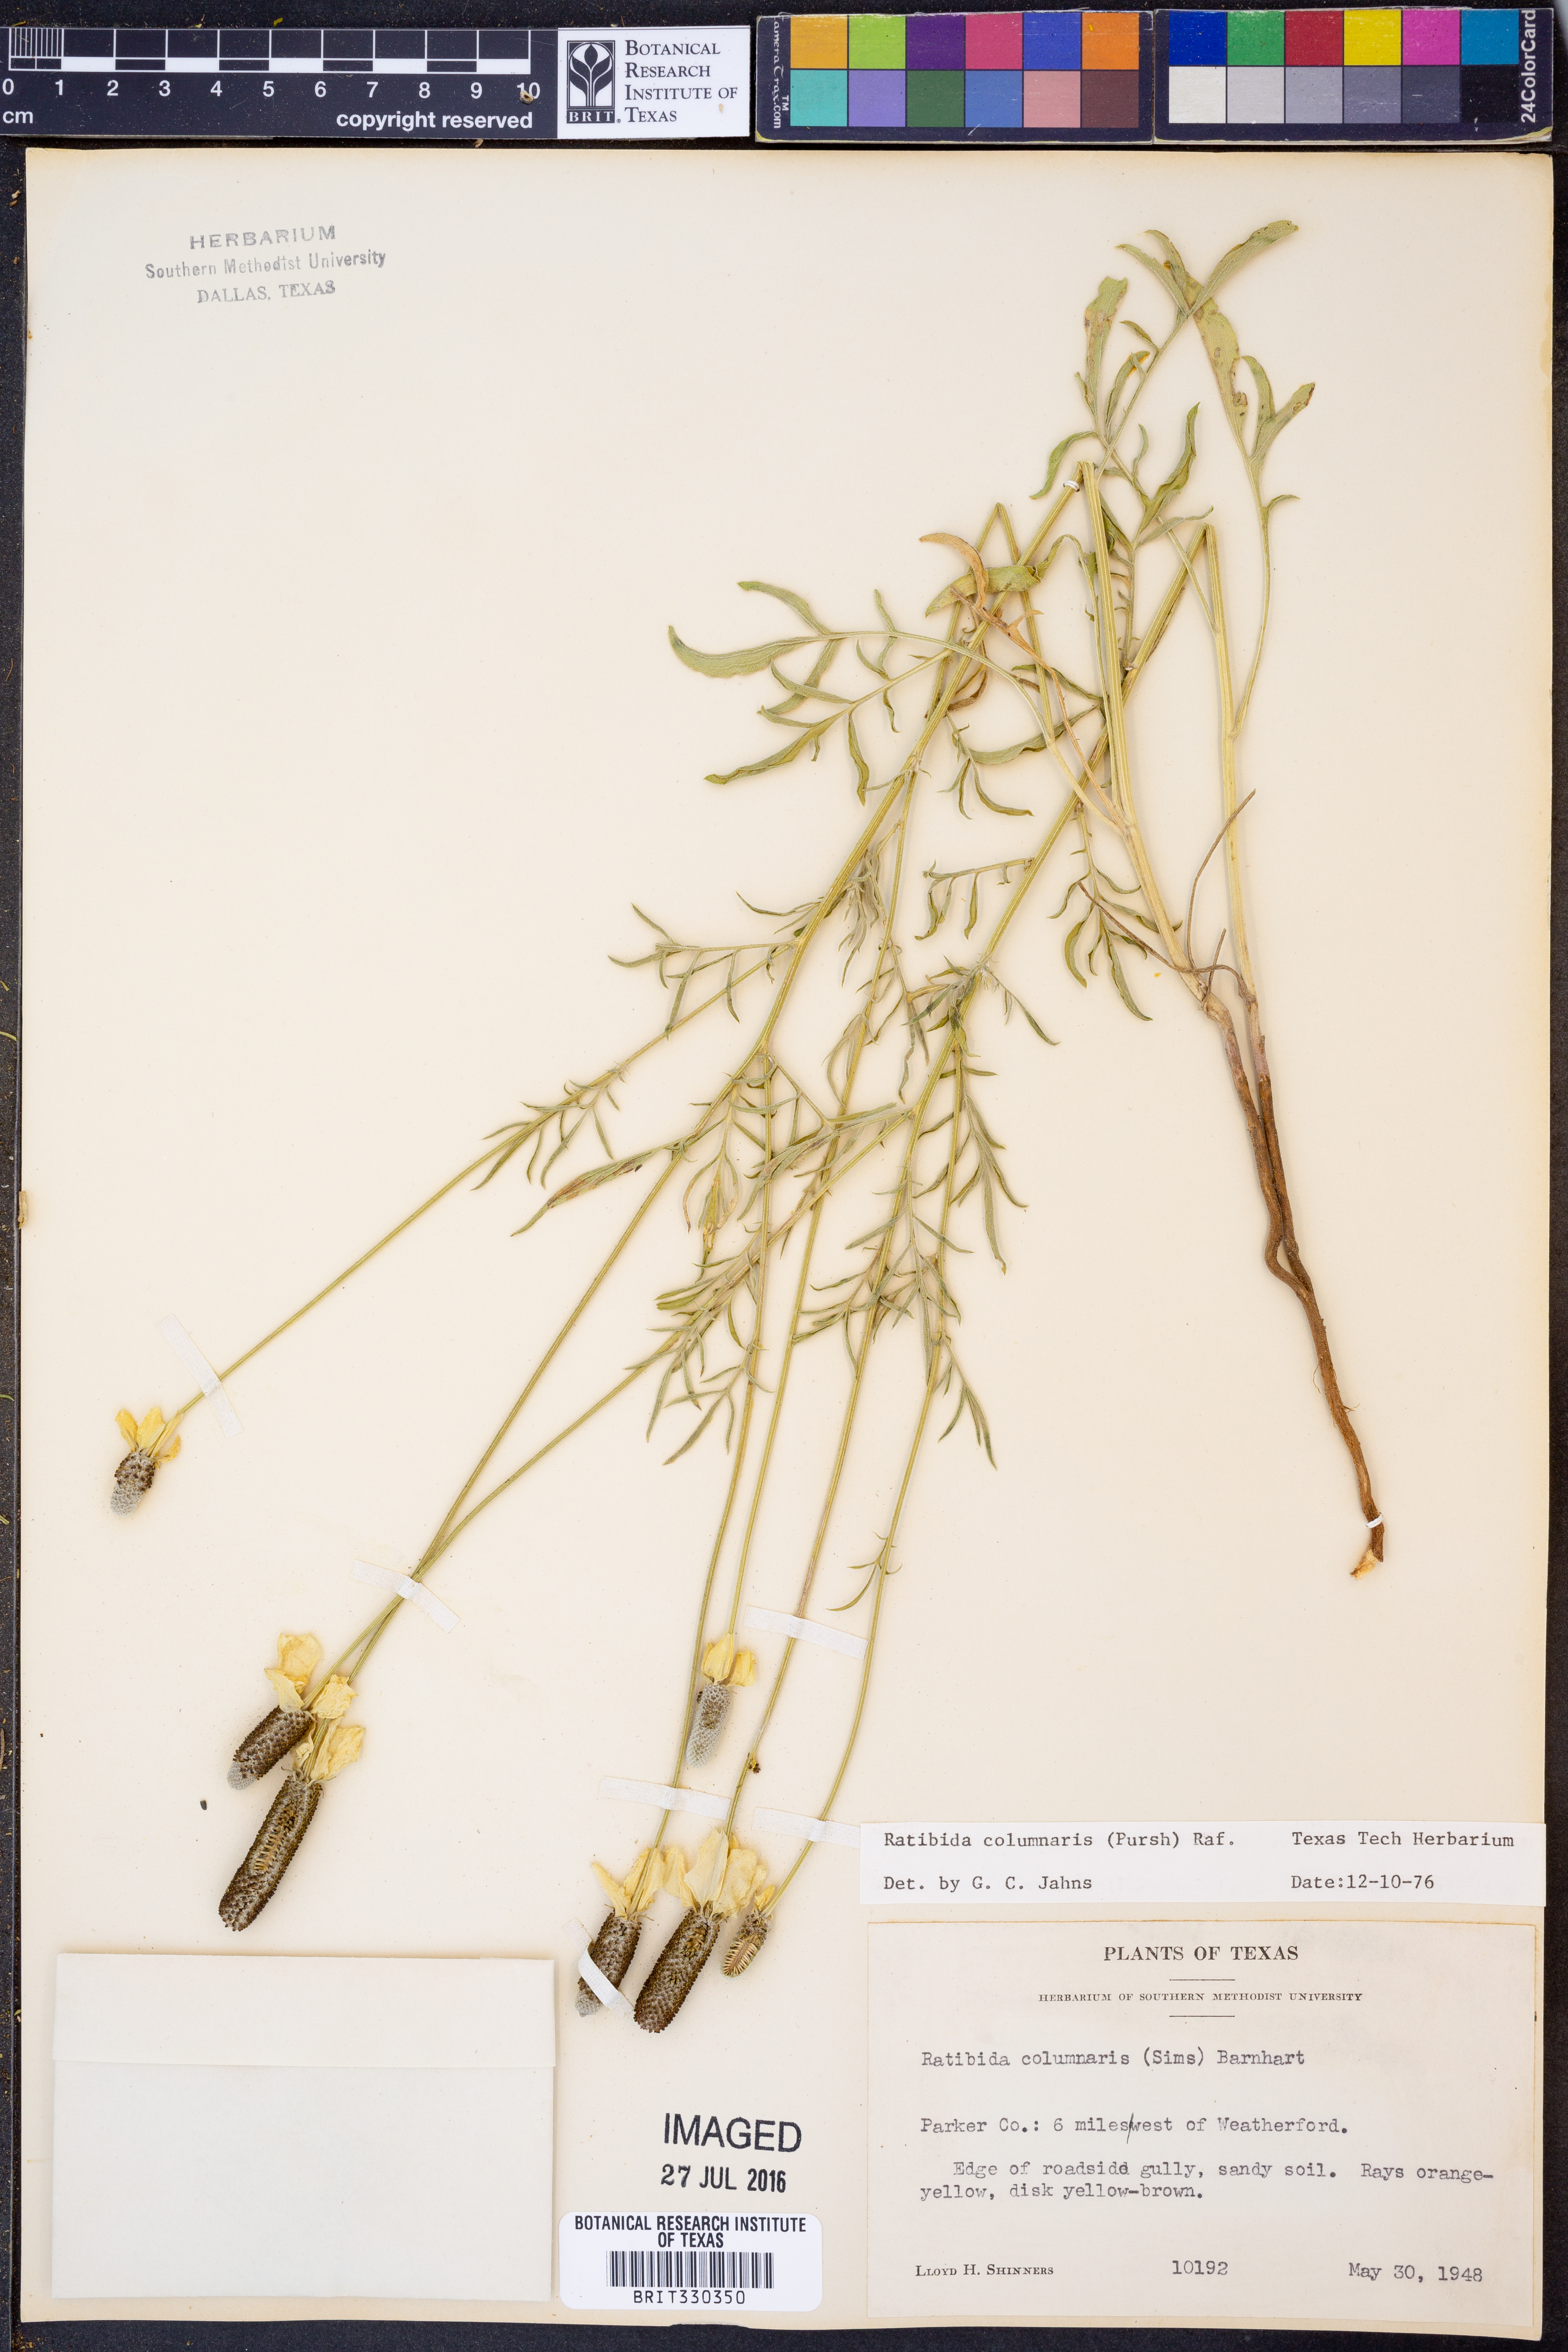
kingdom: Plantae
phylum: Tracheophyta
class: Magnoliopsida
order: Asterales
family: Asteraceae
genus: Ratibida
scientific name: Ratibida columnifera
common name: Prairie coneflower
